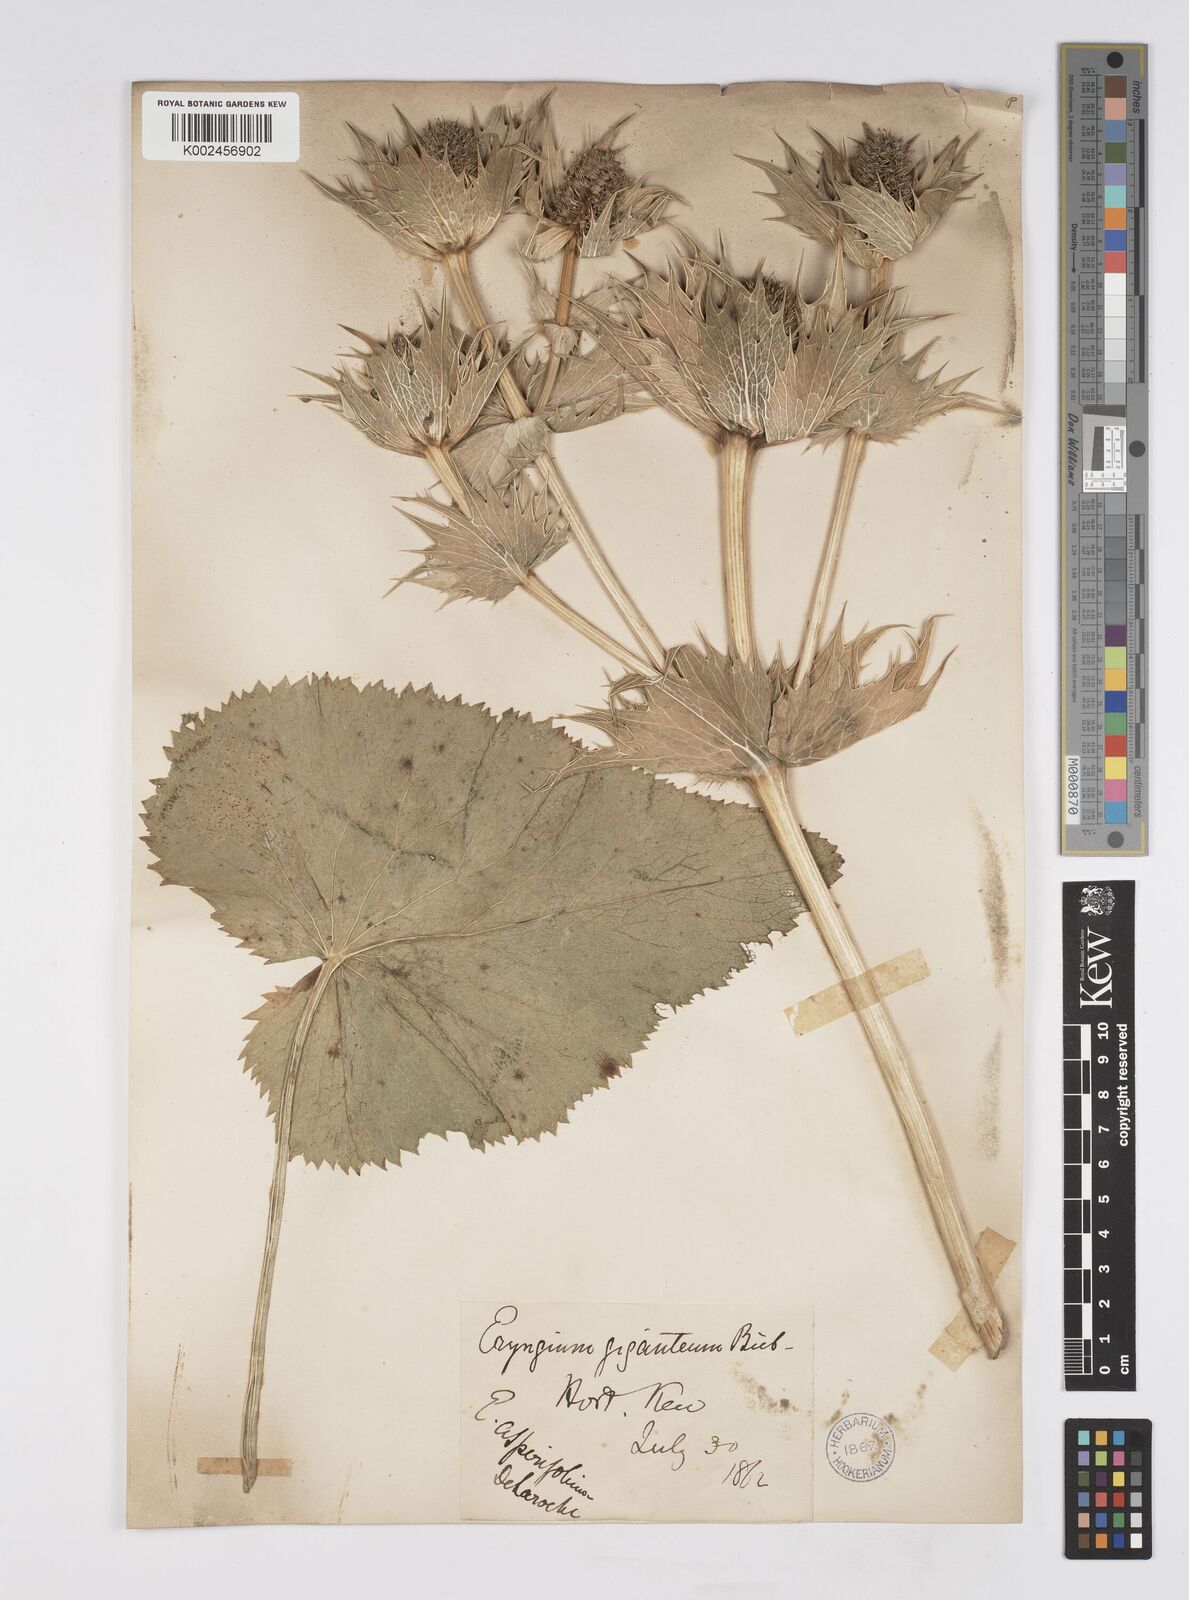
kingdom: Plantae
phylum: Tracheophyta
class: Magnoliopsida
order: Apiales
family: Apiaceae
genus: Eryngium
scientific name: Eryngium giganteum
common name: Tall eryngo
